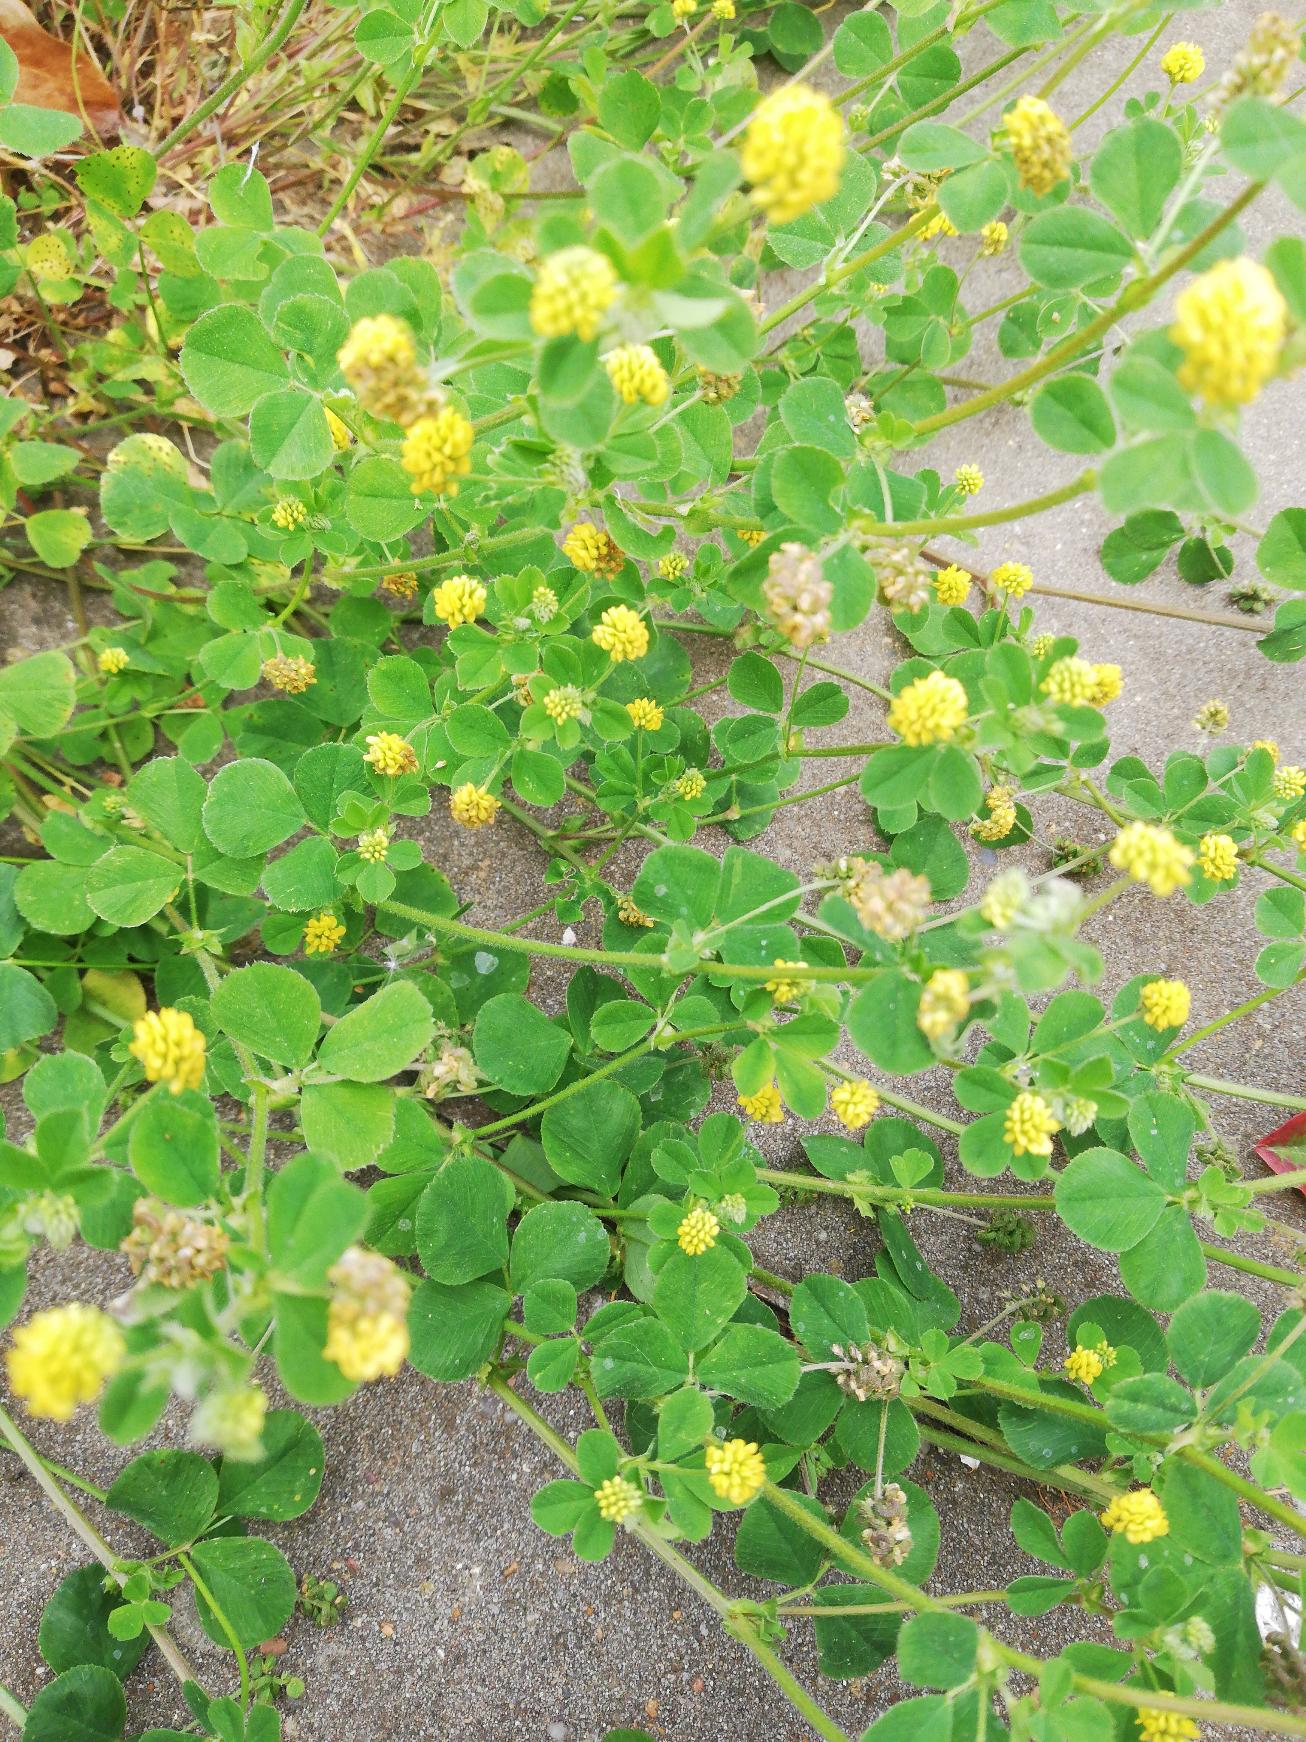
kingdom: Plantae
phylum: Tracheophyta
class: Magnoliopsida
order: Fabales
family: Fabaceae
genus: Medicago
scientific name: Medicago lupulina
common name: Humle-sneglebælg
